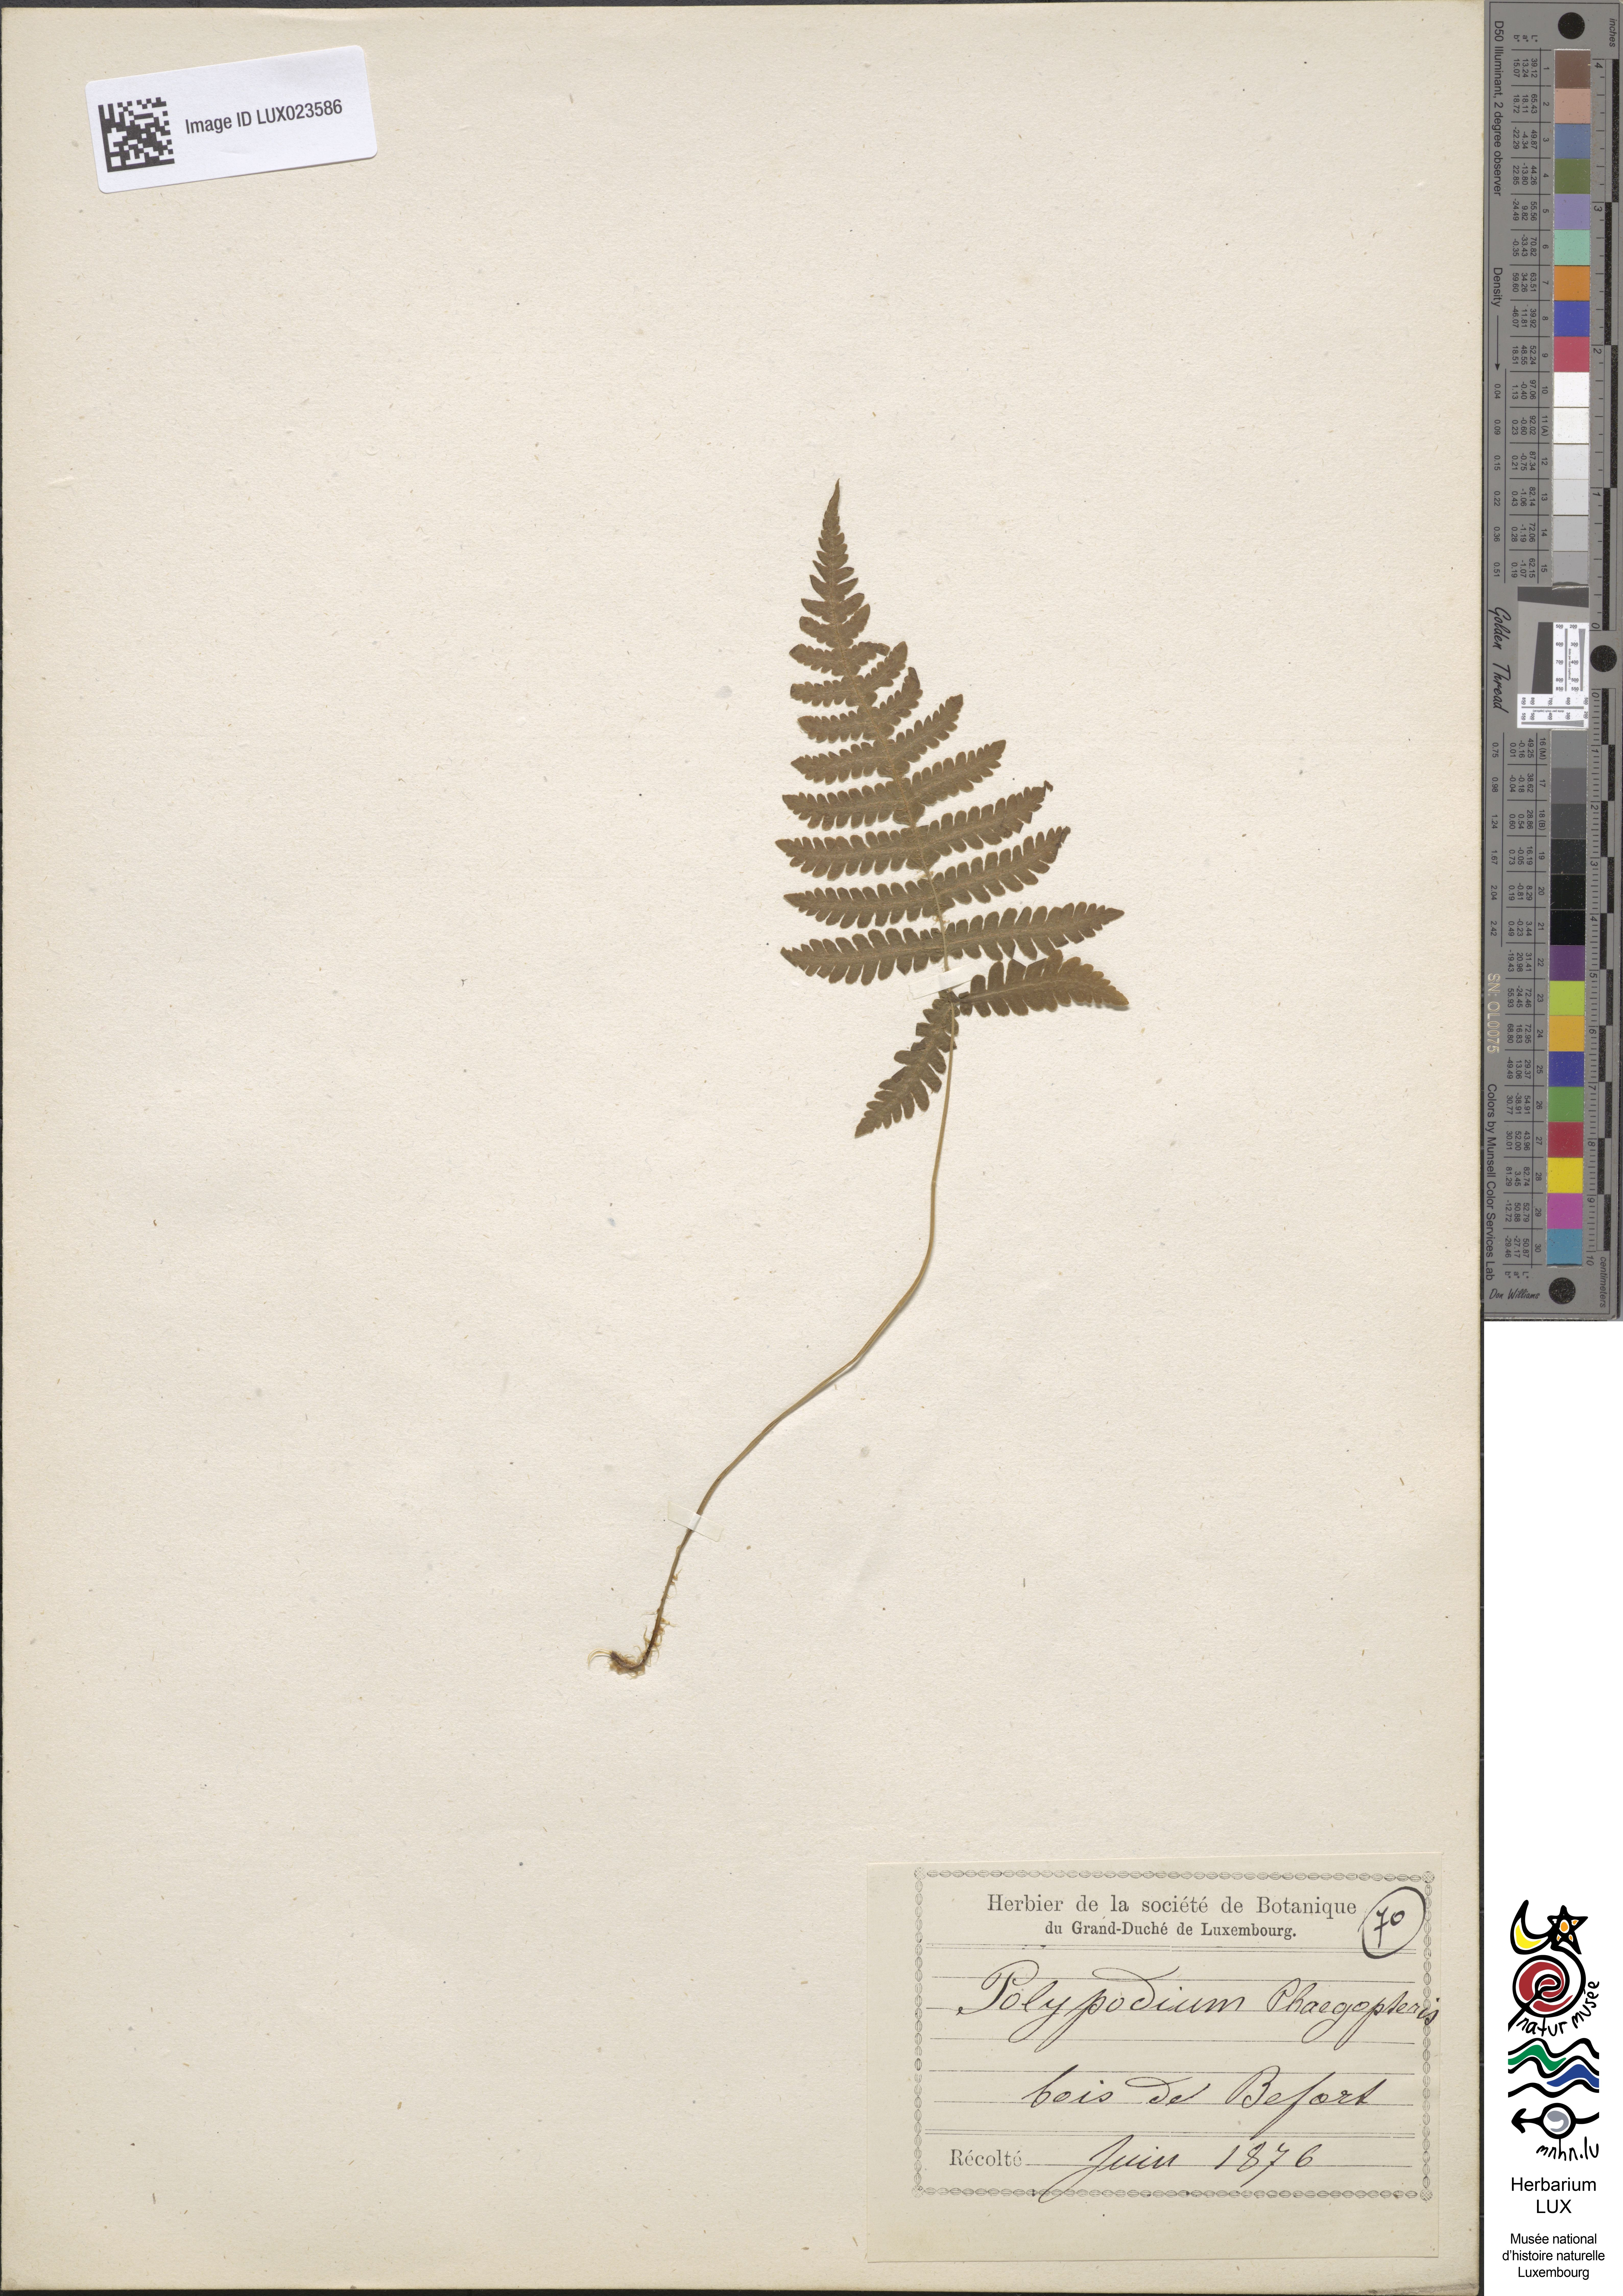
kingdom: Plantae
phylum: Tracheophyta
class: Polypodiopsida
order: Polypodiales
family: Thelypteridaceae
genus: Phegopteris
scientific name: Phegopteris connectilis
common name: Beech fern
